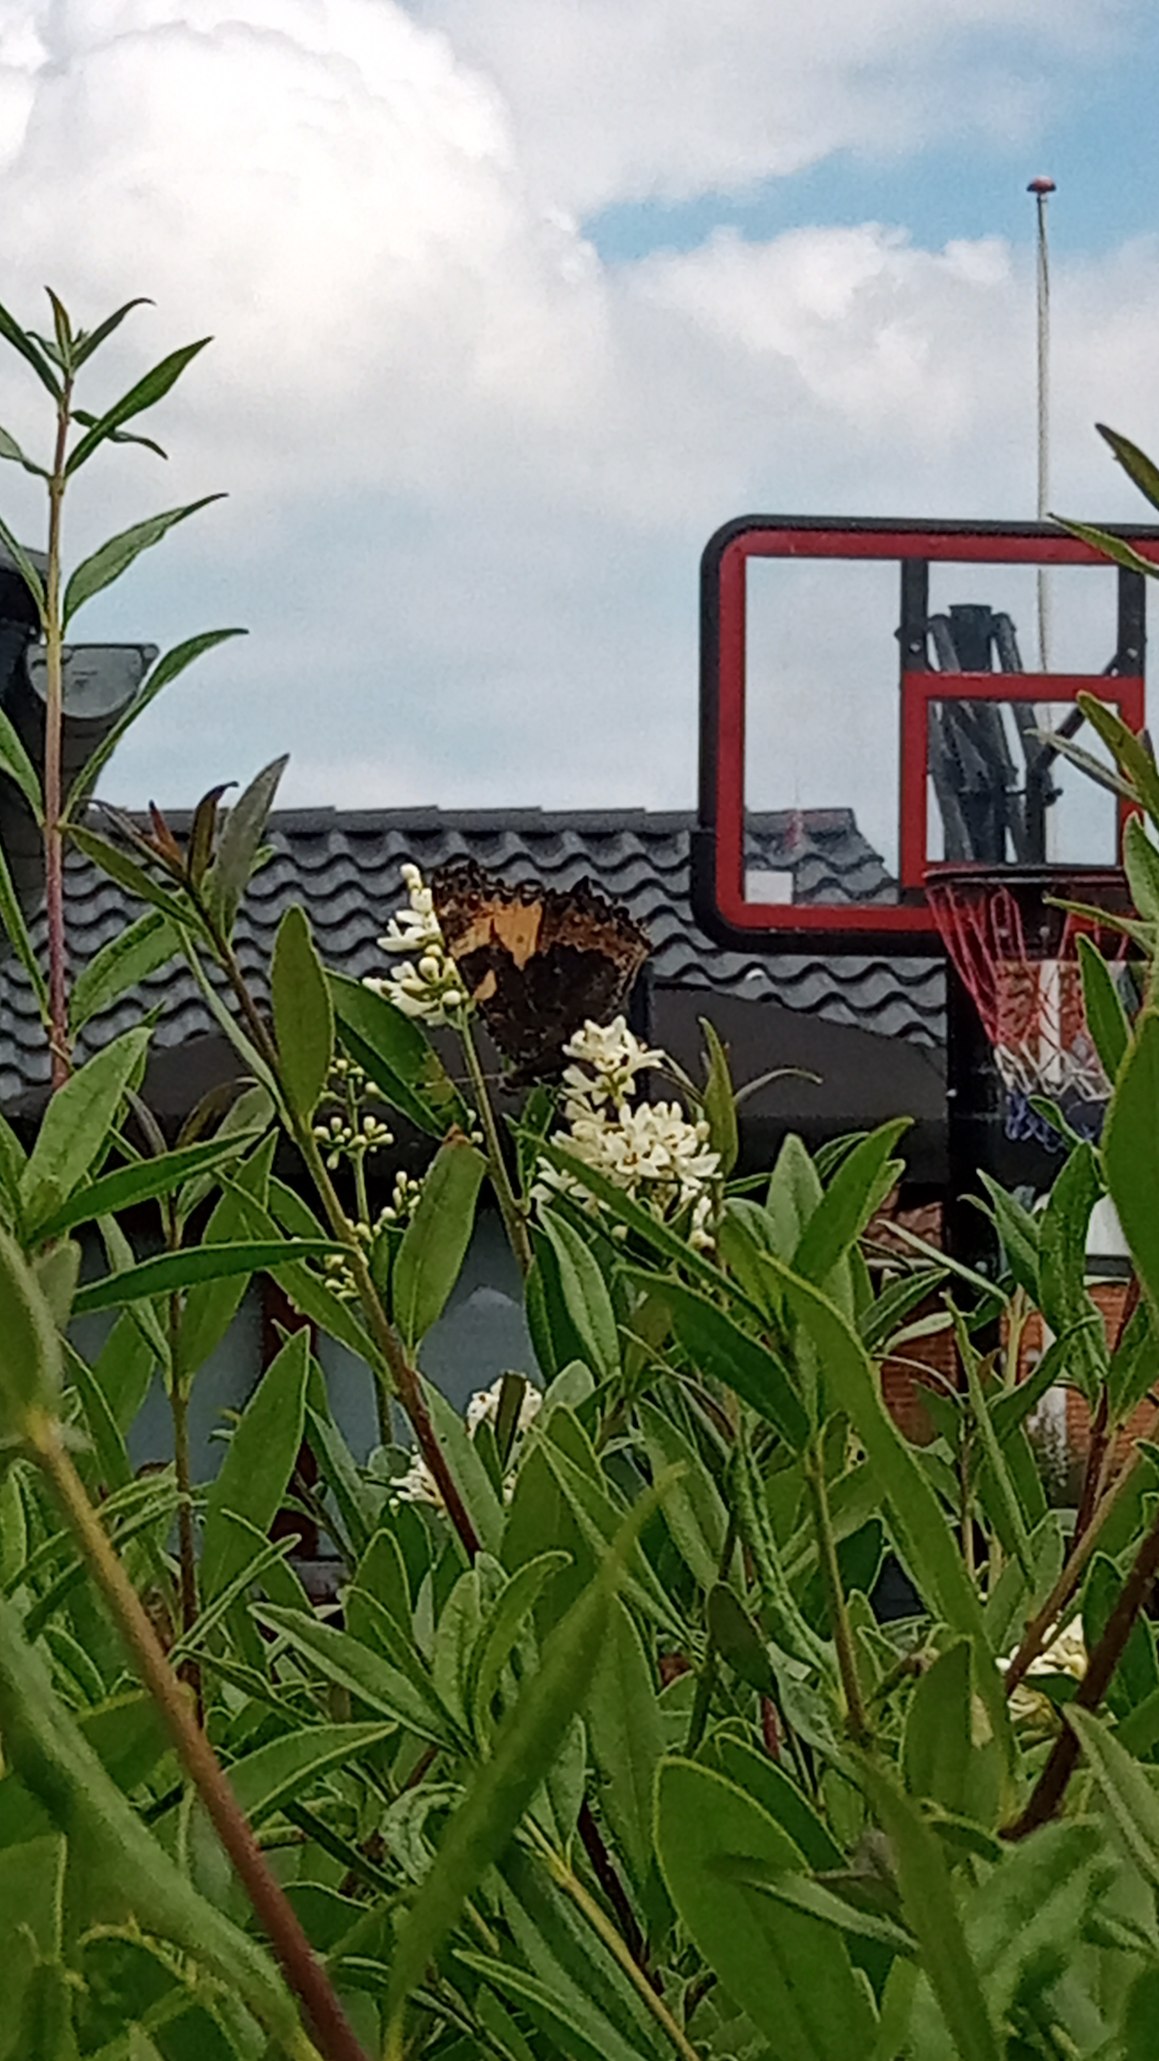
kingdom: Animalia
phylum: Arthropoda
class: Insecta
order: Lepidoptera
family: Nymphalidae
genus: Aglais
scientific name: Aglais urticae
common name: Nældens takvinge
